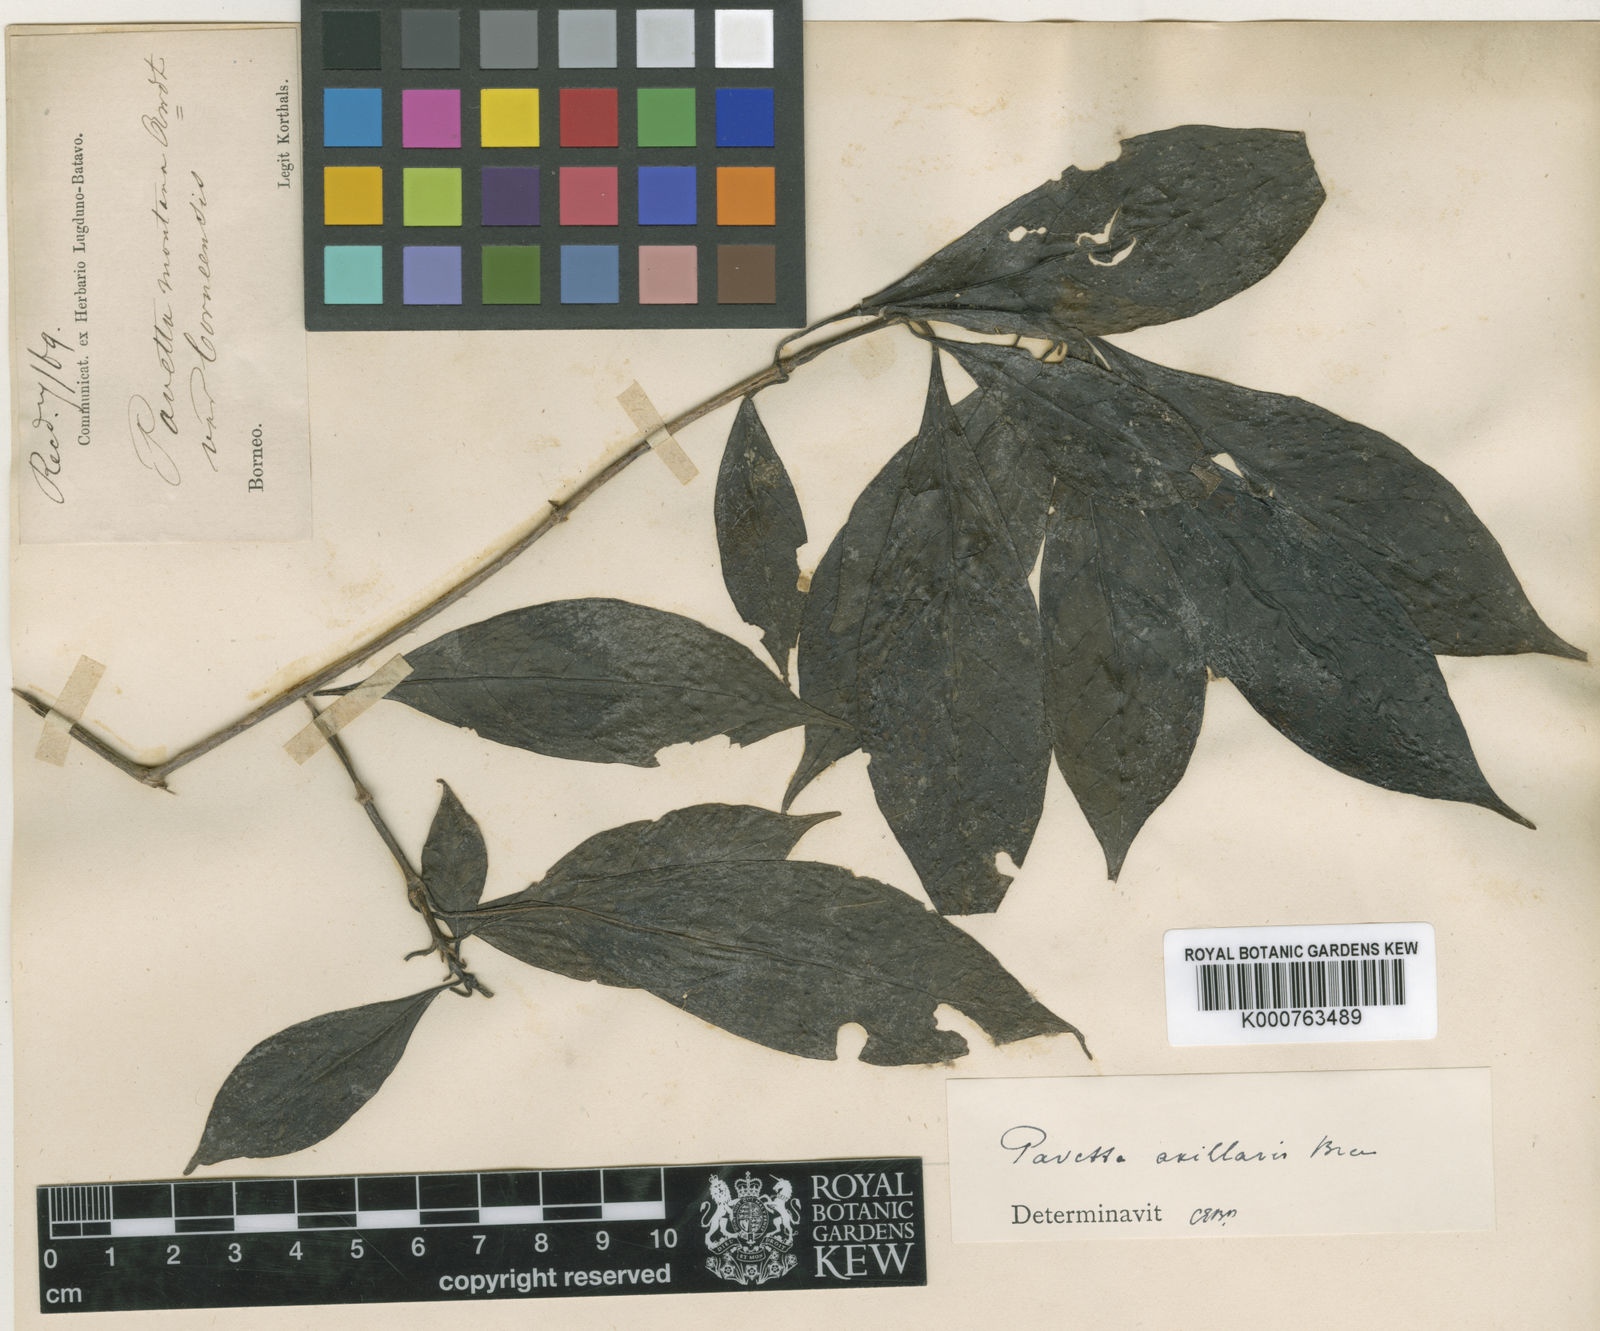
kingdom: Plantae
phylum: Tracheophyta
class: Magnoliopsida
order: Gentianales
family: Rubiaceae
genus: Pavetta
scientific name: Pavetta axillaris
